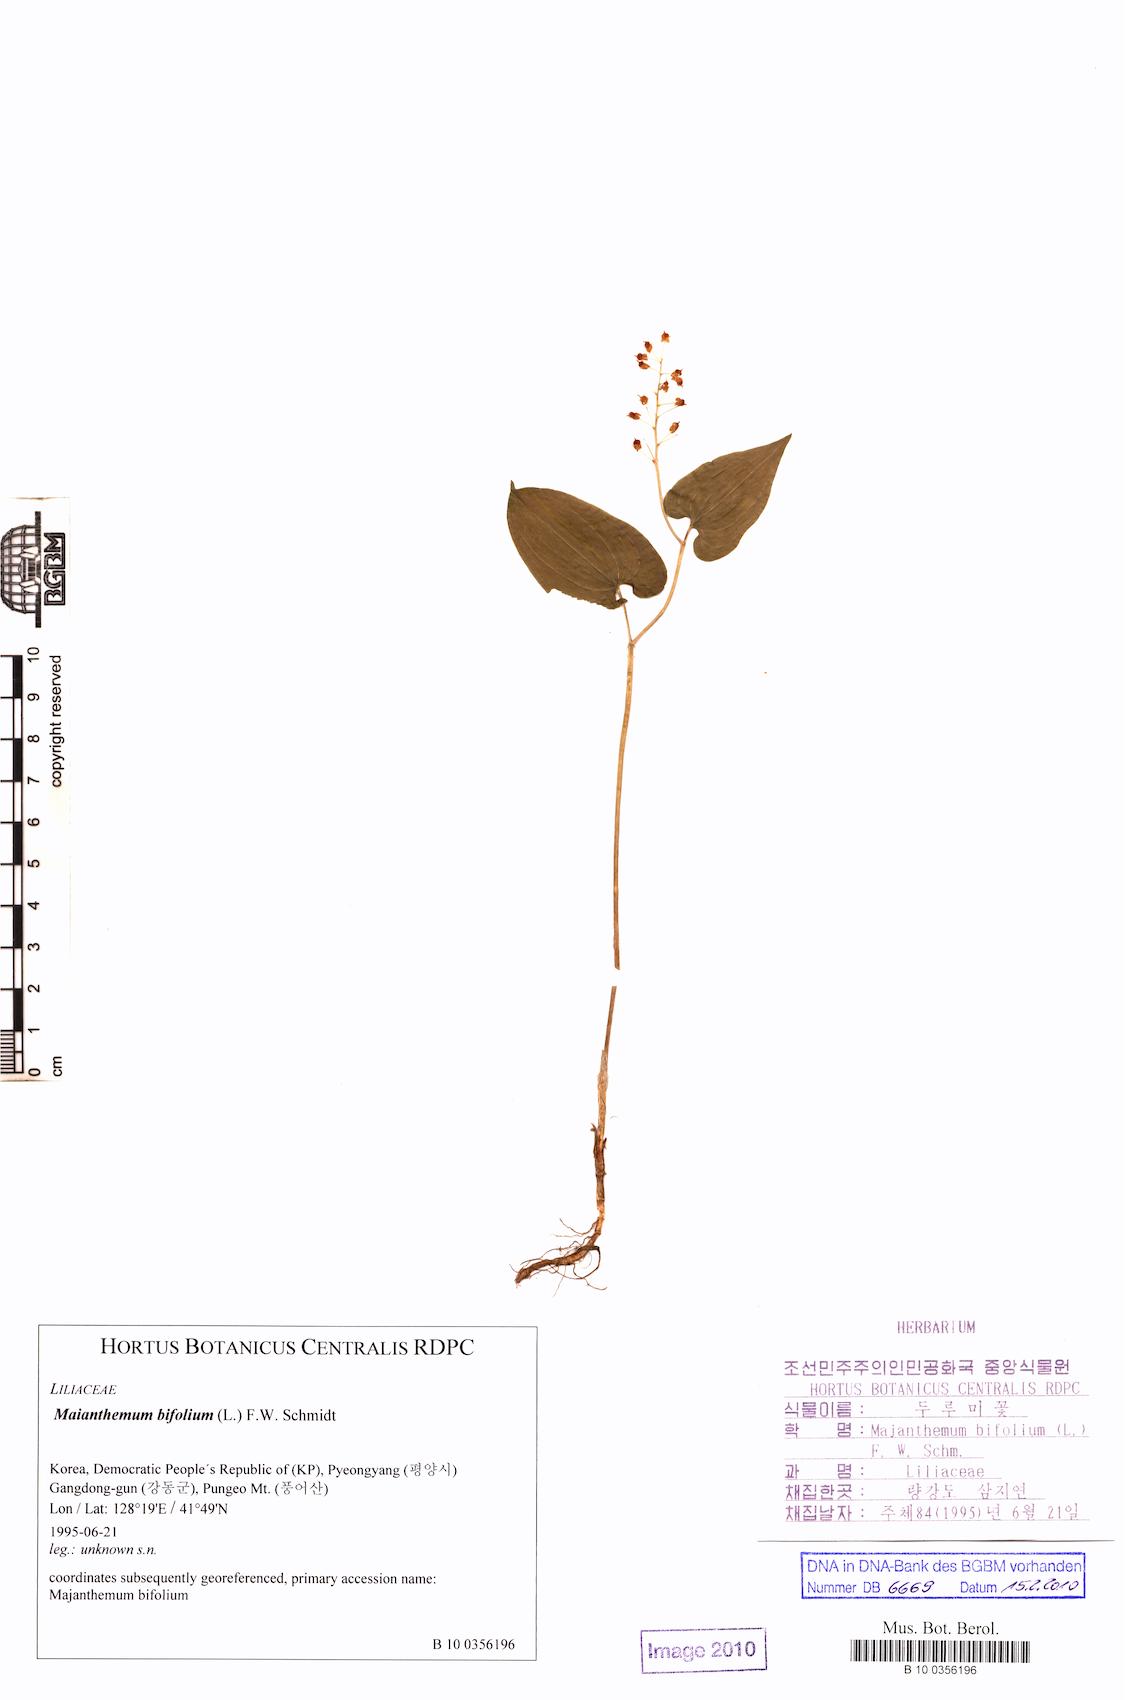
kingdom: Plantae
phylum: Tracheophyta
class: Liliopsida
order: Asparagales
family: Asparagaceae
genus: Maianthemum
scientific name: Maianthemum bifolium
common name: May lily
